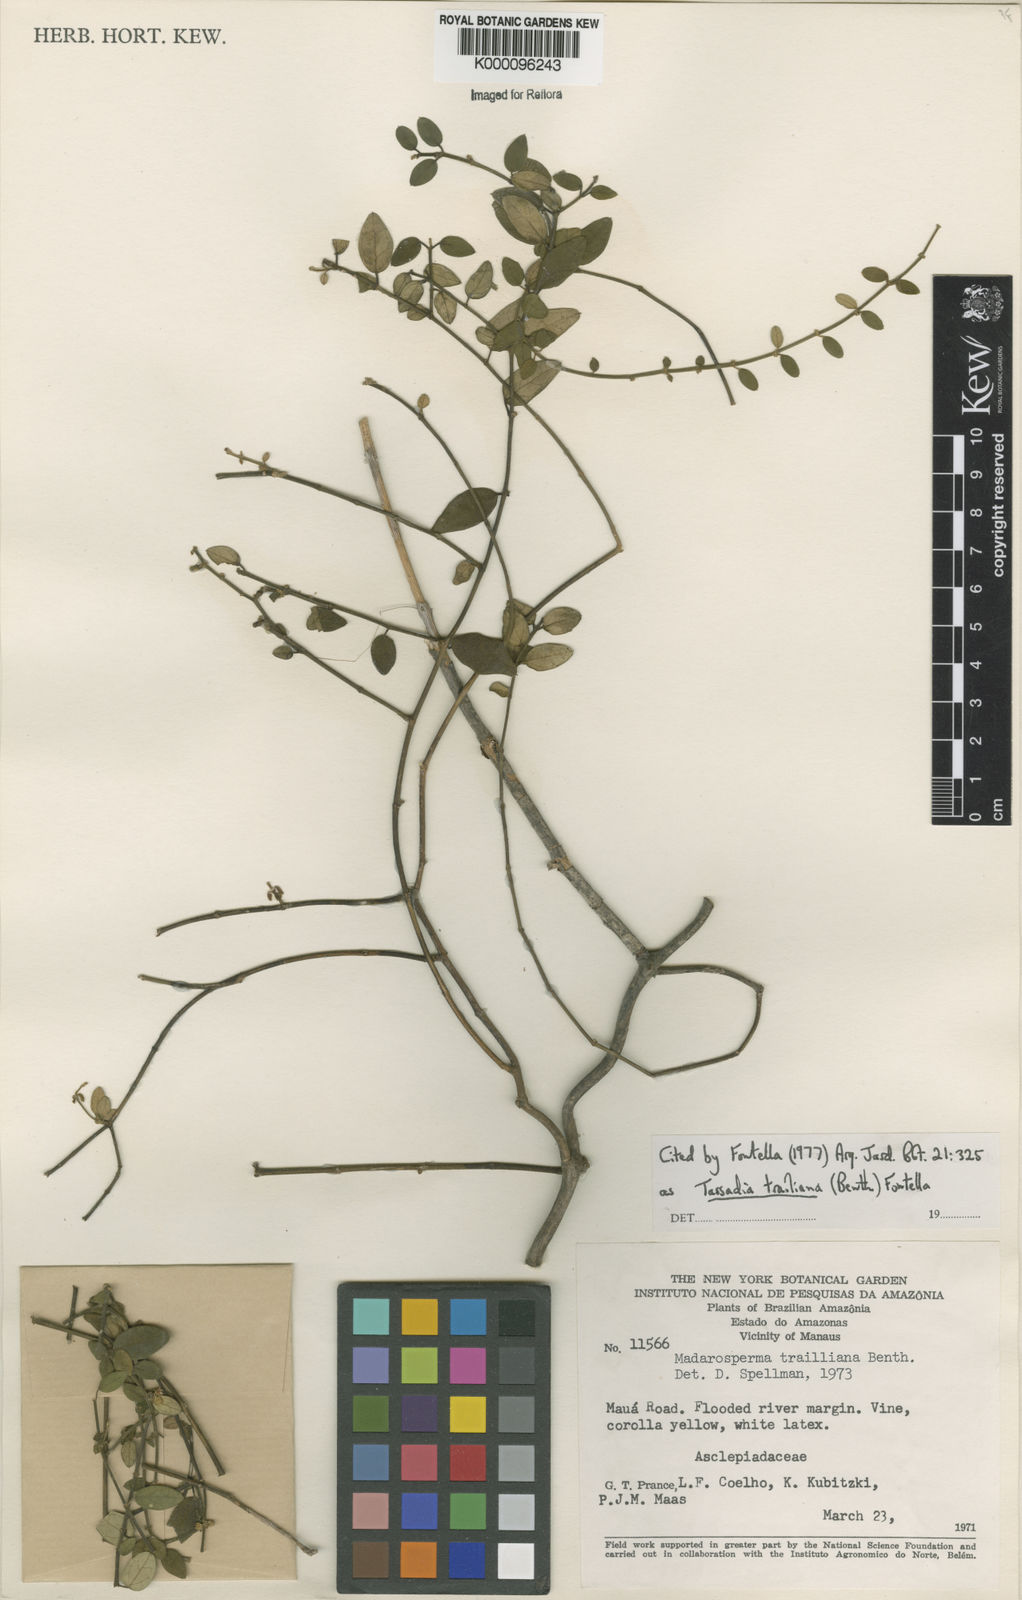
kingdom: Plantae
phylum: Tracheophyta
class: Magnoliopsida
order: Gentianales
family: Apocynaceae
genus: Tassadia
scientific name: Tassadia trailiana
